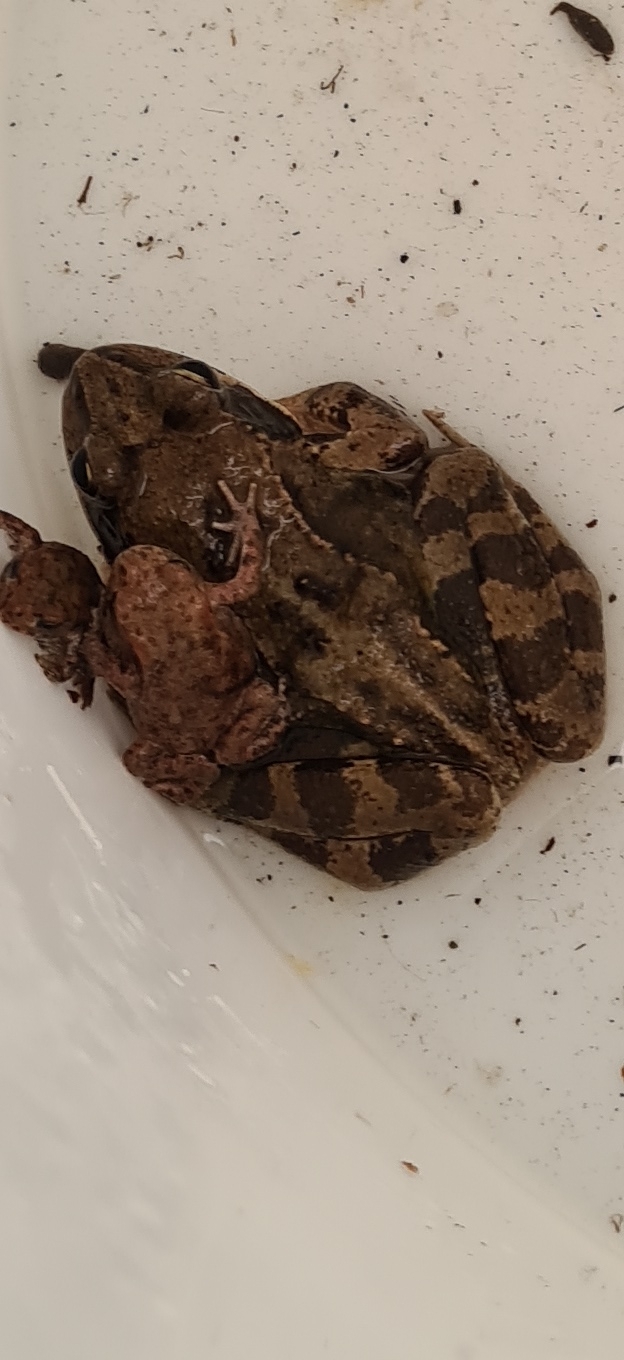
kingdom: Animalia
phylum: Chordata
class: Amphibia
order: Anura
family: Ranidae
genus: Rana
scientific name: Rana temporaria
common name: Butsnudet frø
